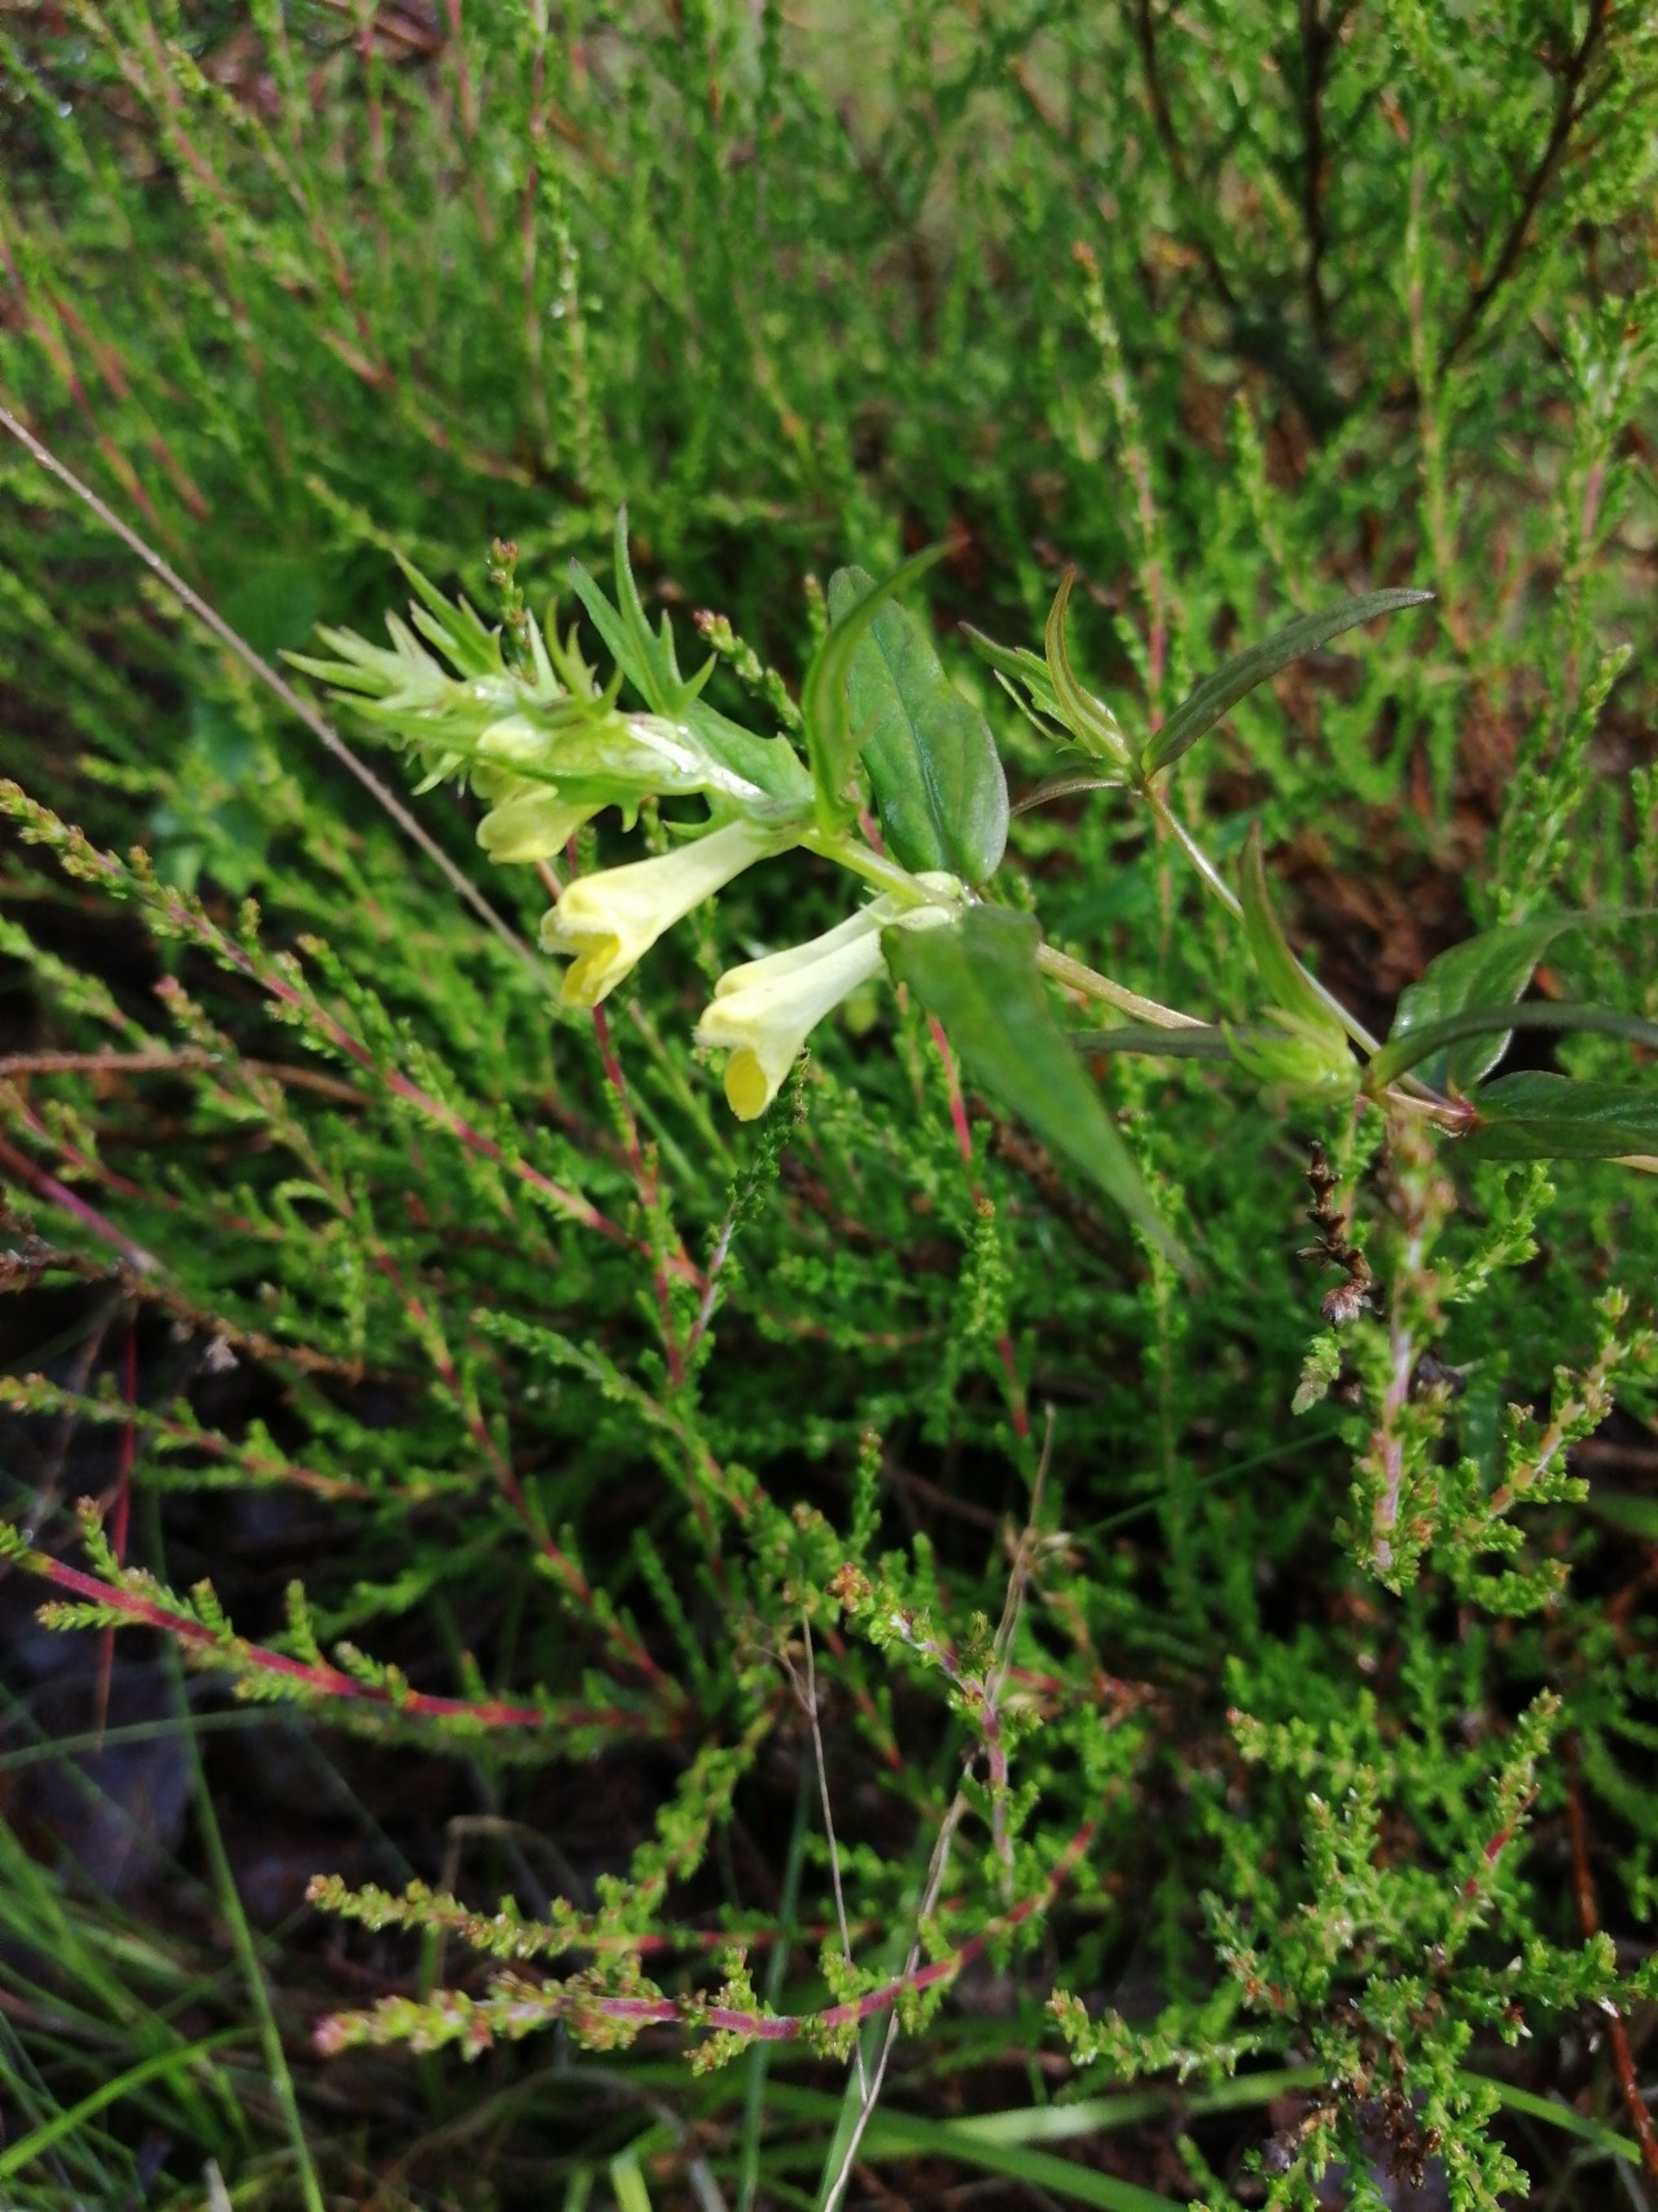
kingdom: Plantae
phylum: Tracheophyta
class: Magnoliopsida
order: Lamiales
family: Orobanchaceae
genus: Melampyrum
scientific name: Melampyrum pratense
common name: Almindelig kohvede
